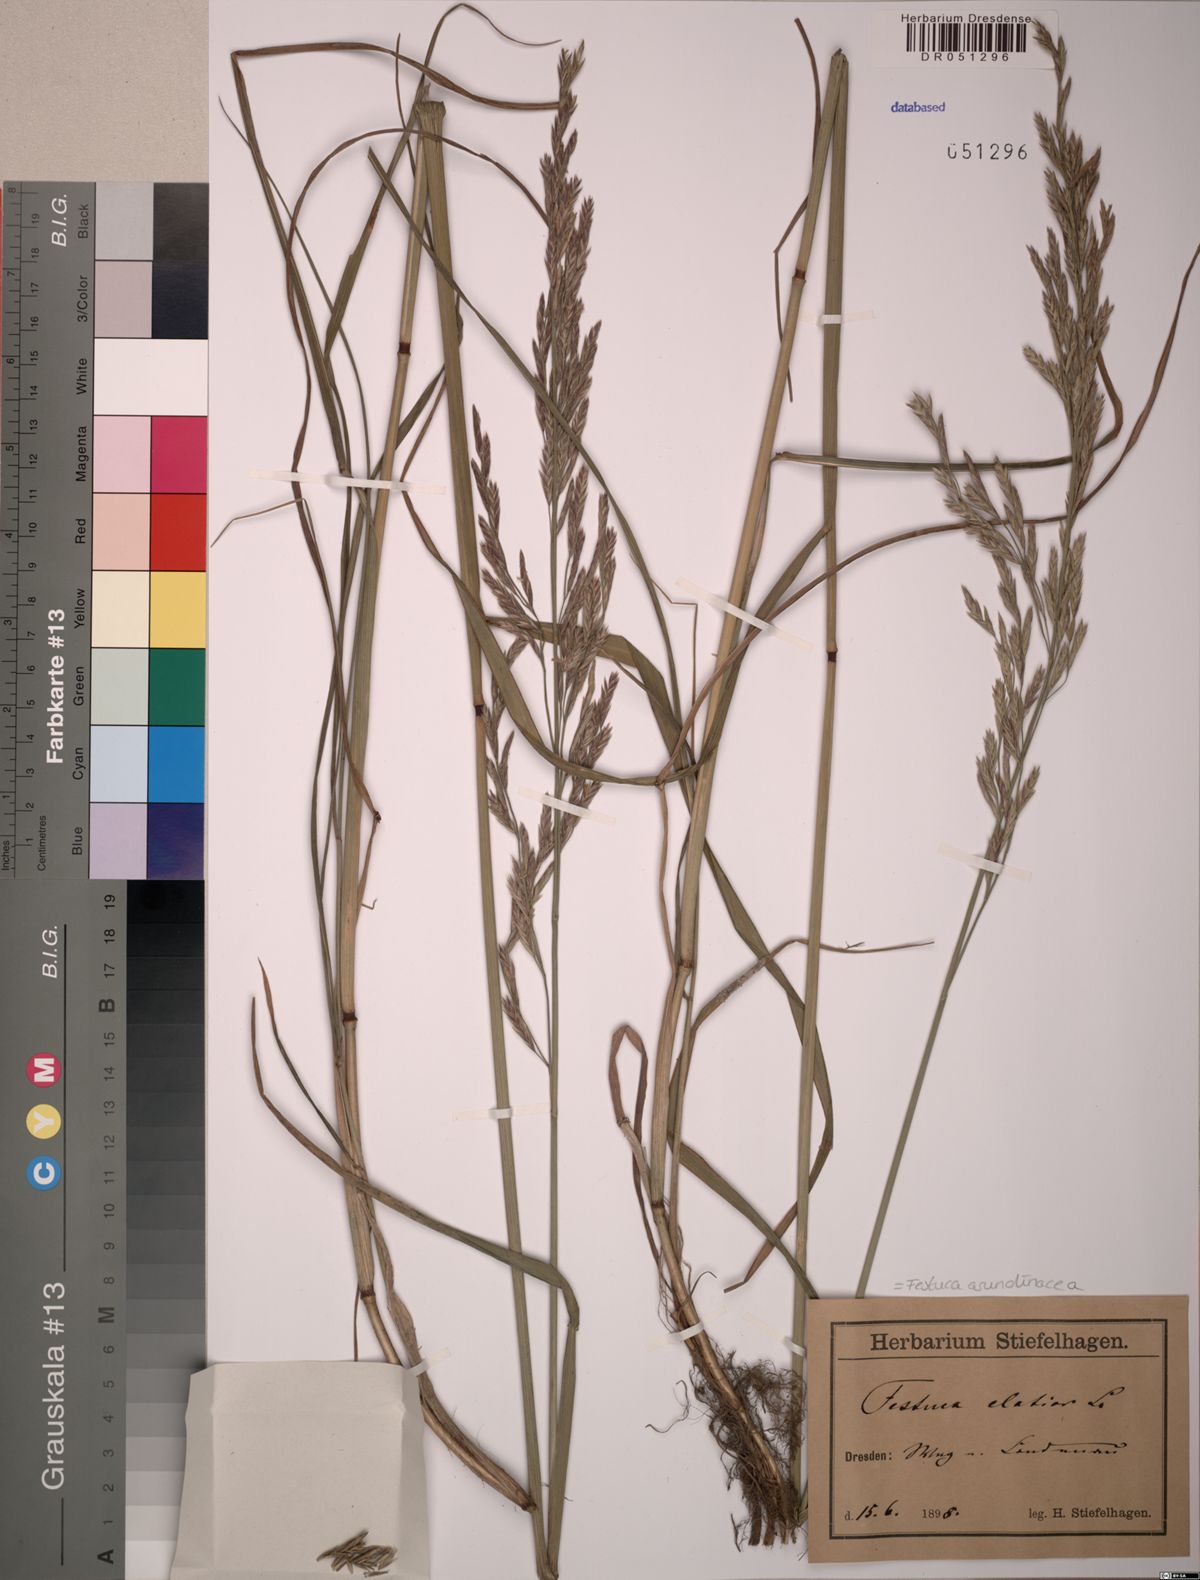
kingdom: Plantae
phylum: Tracheophyta
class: Liliopsida
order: Poales
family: Poaceae
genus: Lolium
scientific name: Lolium arundinaceum
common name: Reed fescue
